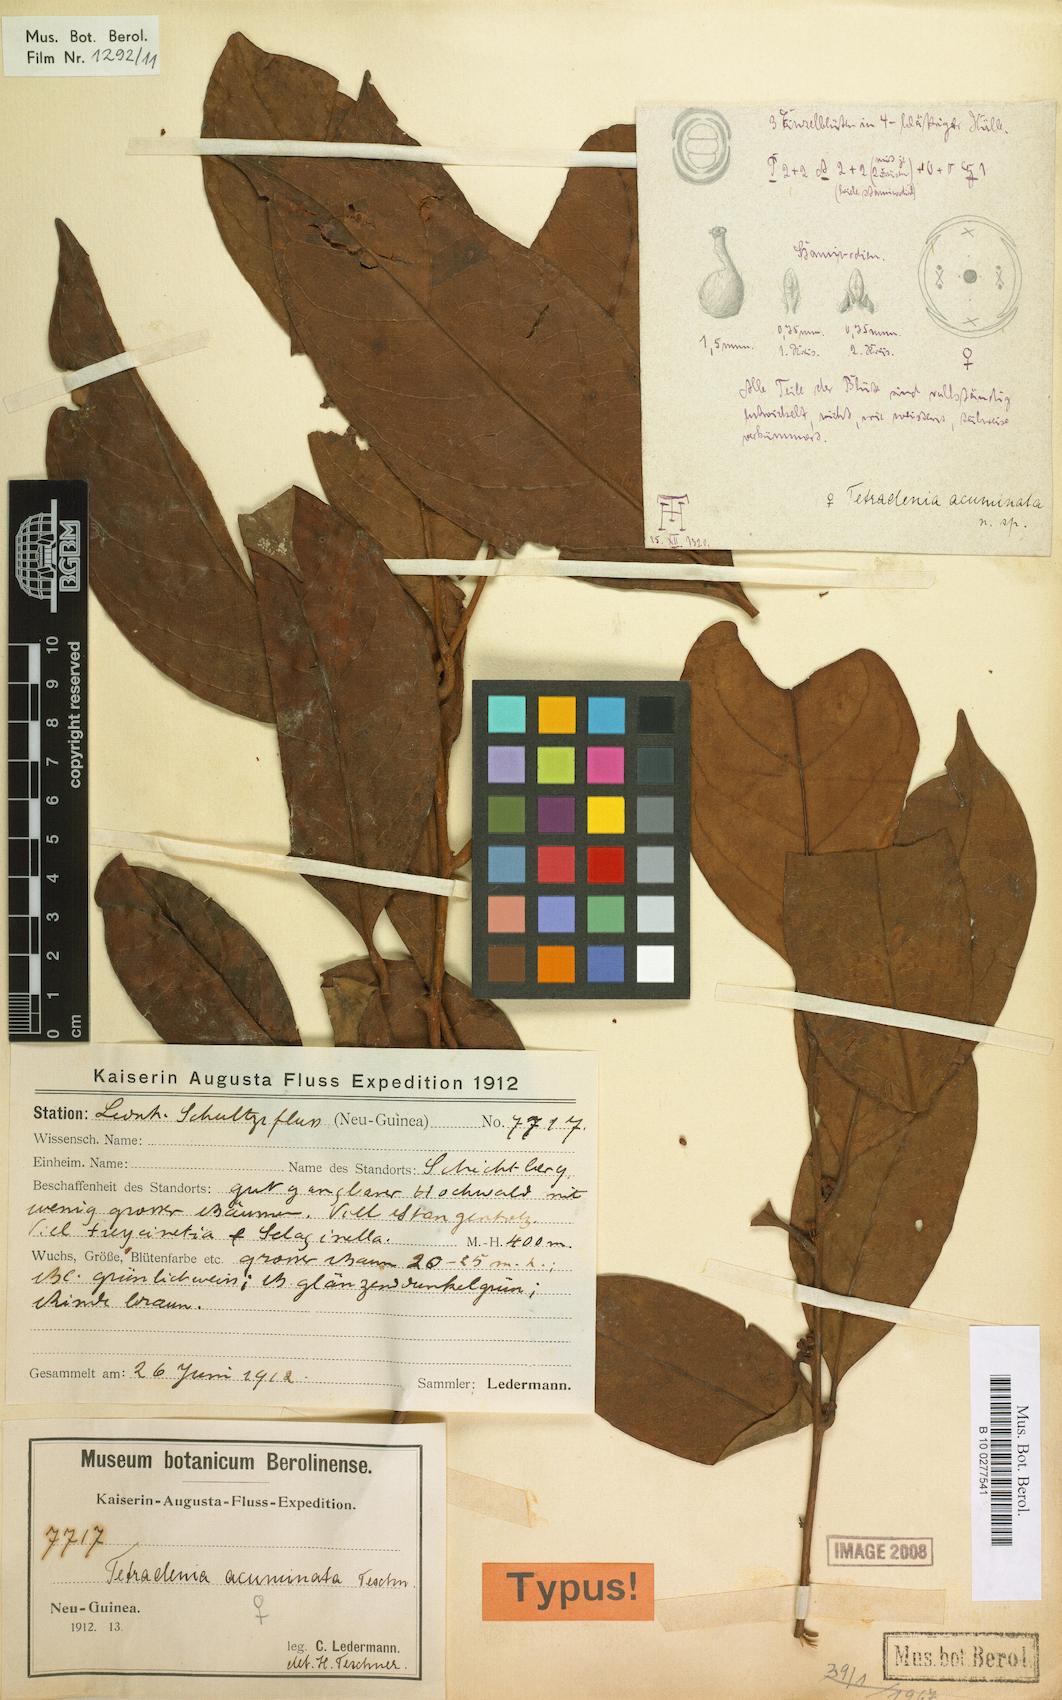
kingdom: Plantae
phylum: Tracheophyta
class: Magnoliopsida
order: Laurales
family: Lauraceae
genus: Litsea
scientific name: Litsea fluminensis
